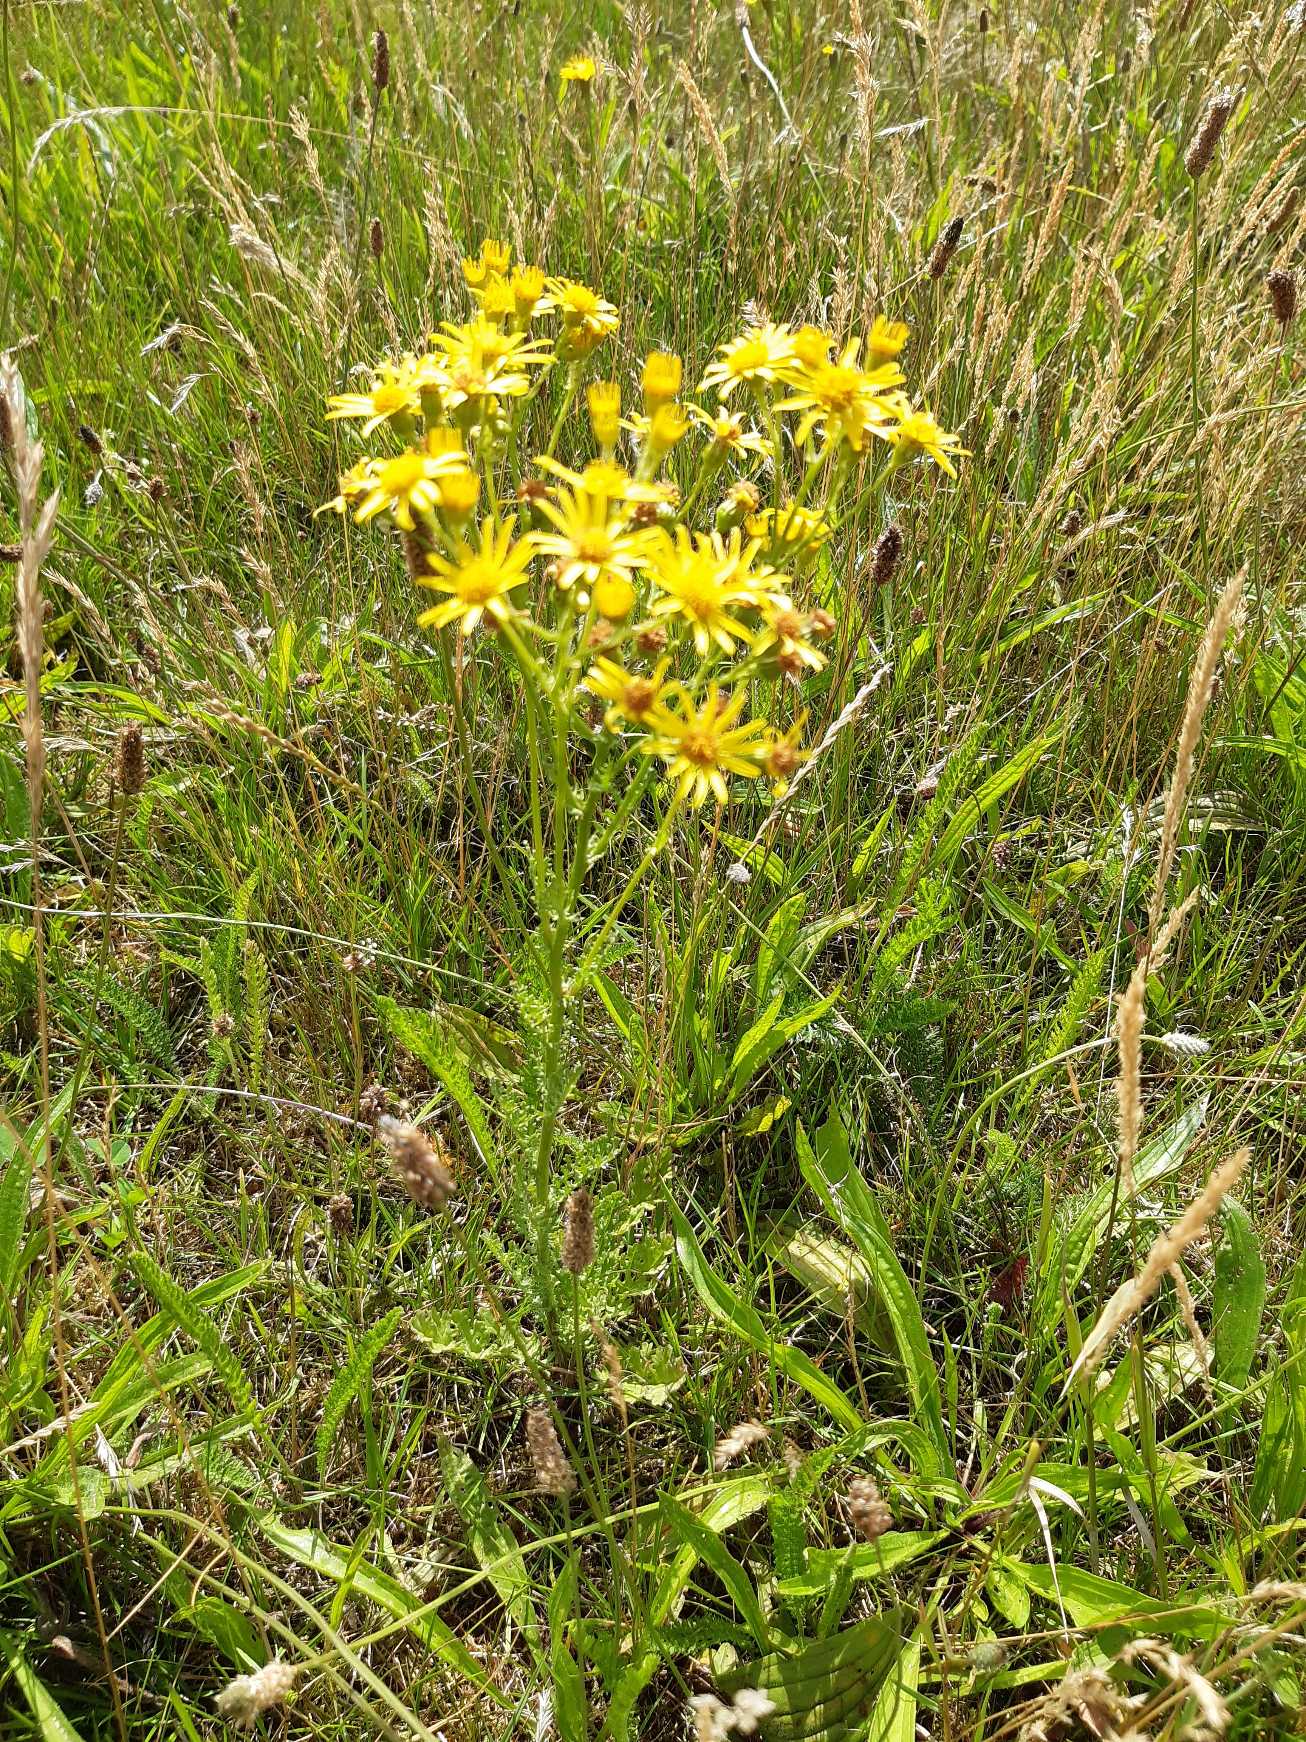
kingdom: Plantae
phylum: Tracheophyta
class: Magnoliopsida
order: Asterales
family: Asteraceae
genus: Jacobaea
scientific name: Jacobaea vulgaris
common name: Eng-brandbæger
